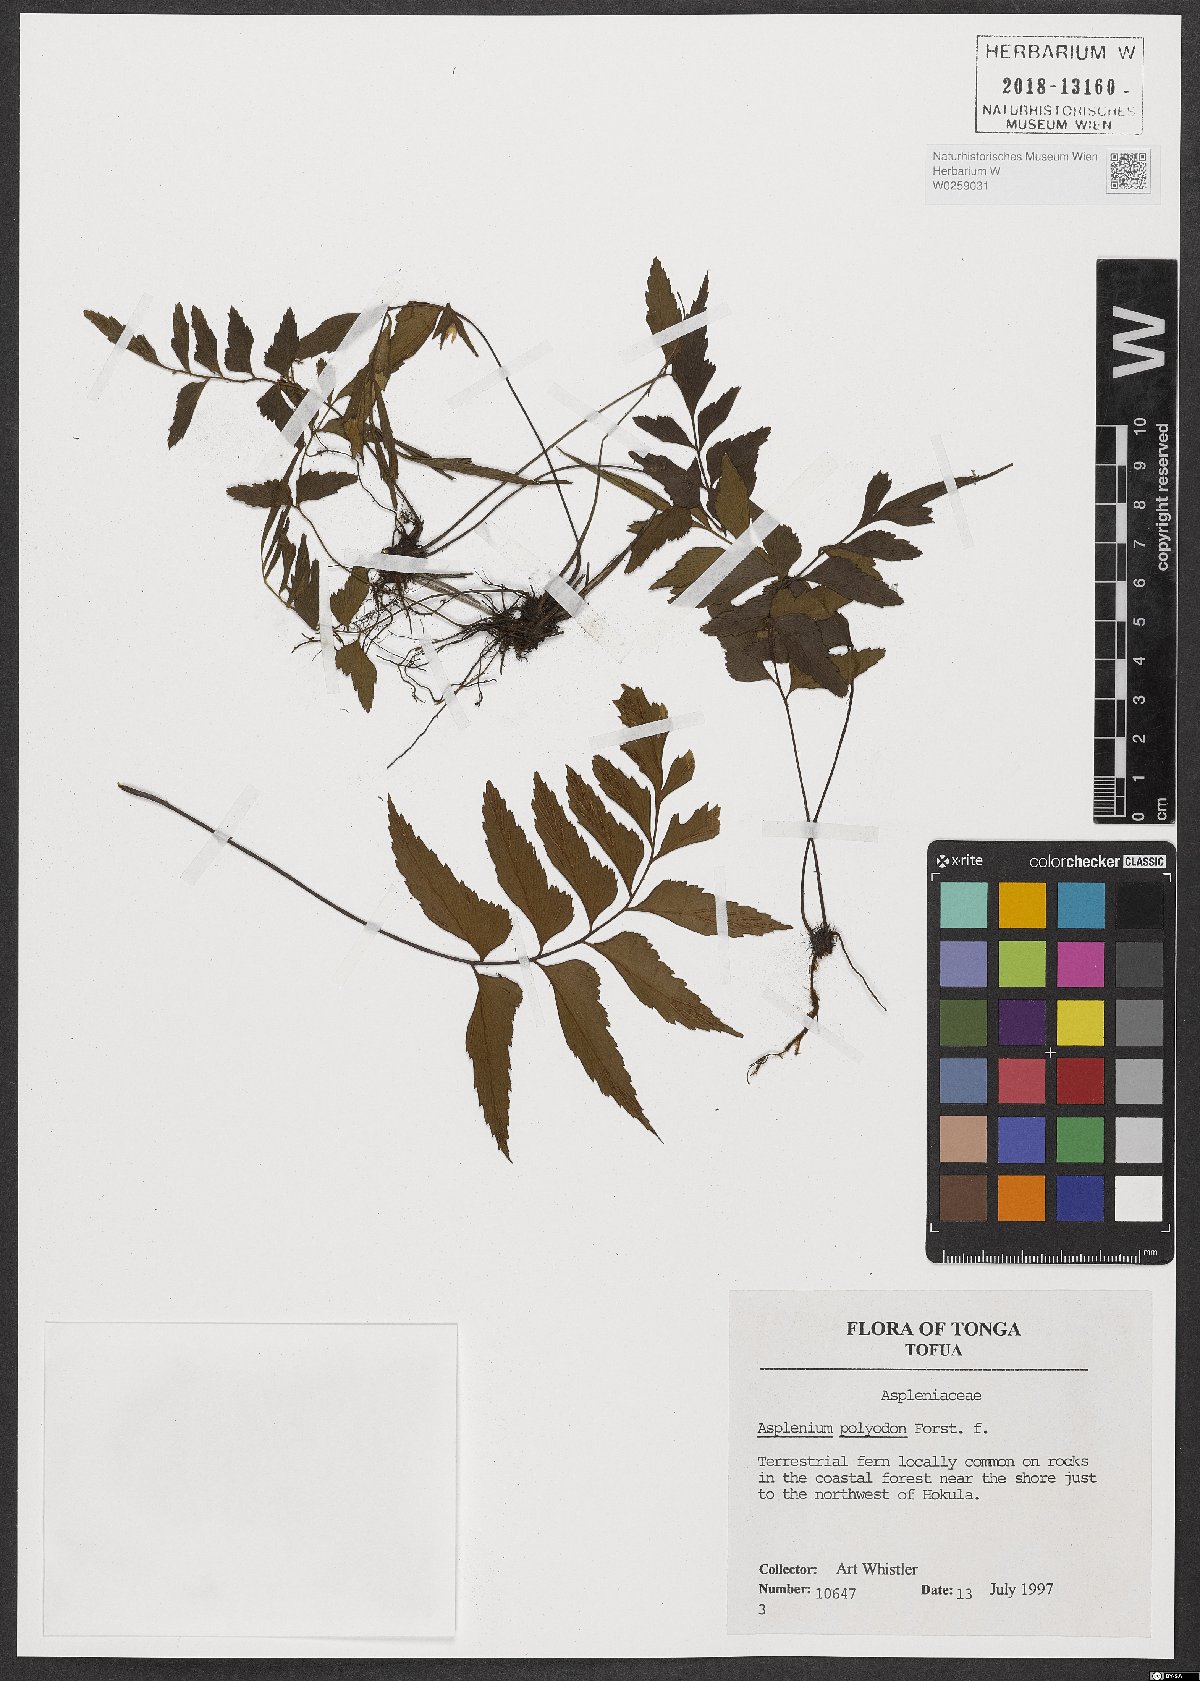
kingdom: Plantae
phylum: Tracheophyta
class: Polypodiopsida
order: Polypodiales
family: Aspleniaceae
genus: Asplenium
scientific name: Asplenium polyodon
